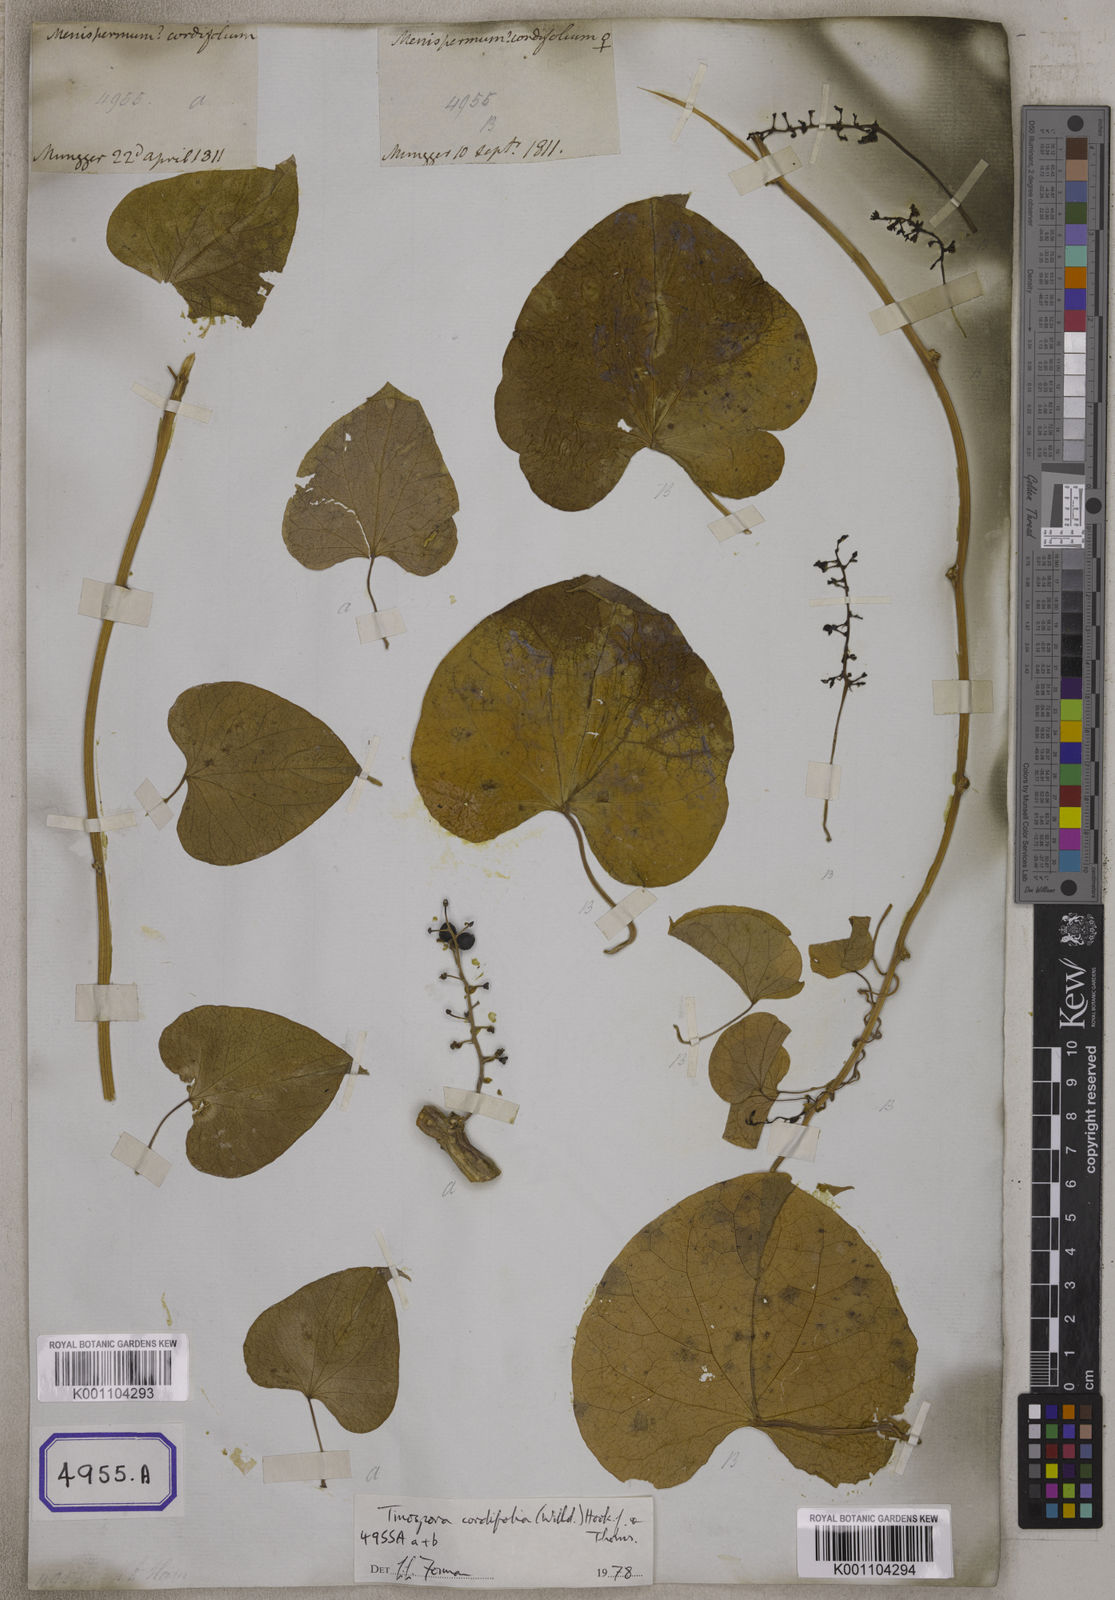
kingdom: Plantae
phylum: Tracheophyta
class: Magnoliopsida
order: Ranunculales
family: Menispermaceae
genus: Tinospora
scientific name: Tinospora glabra
